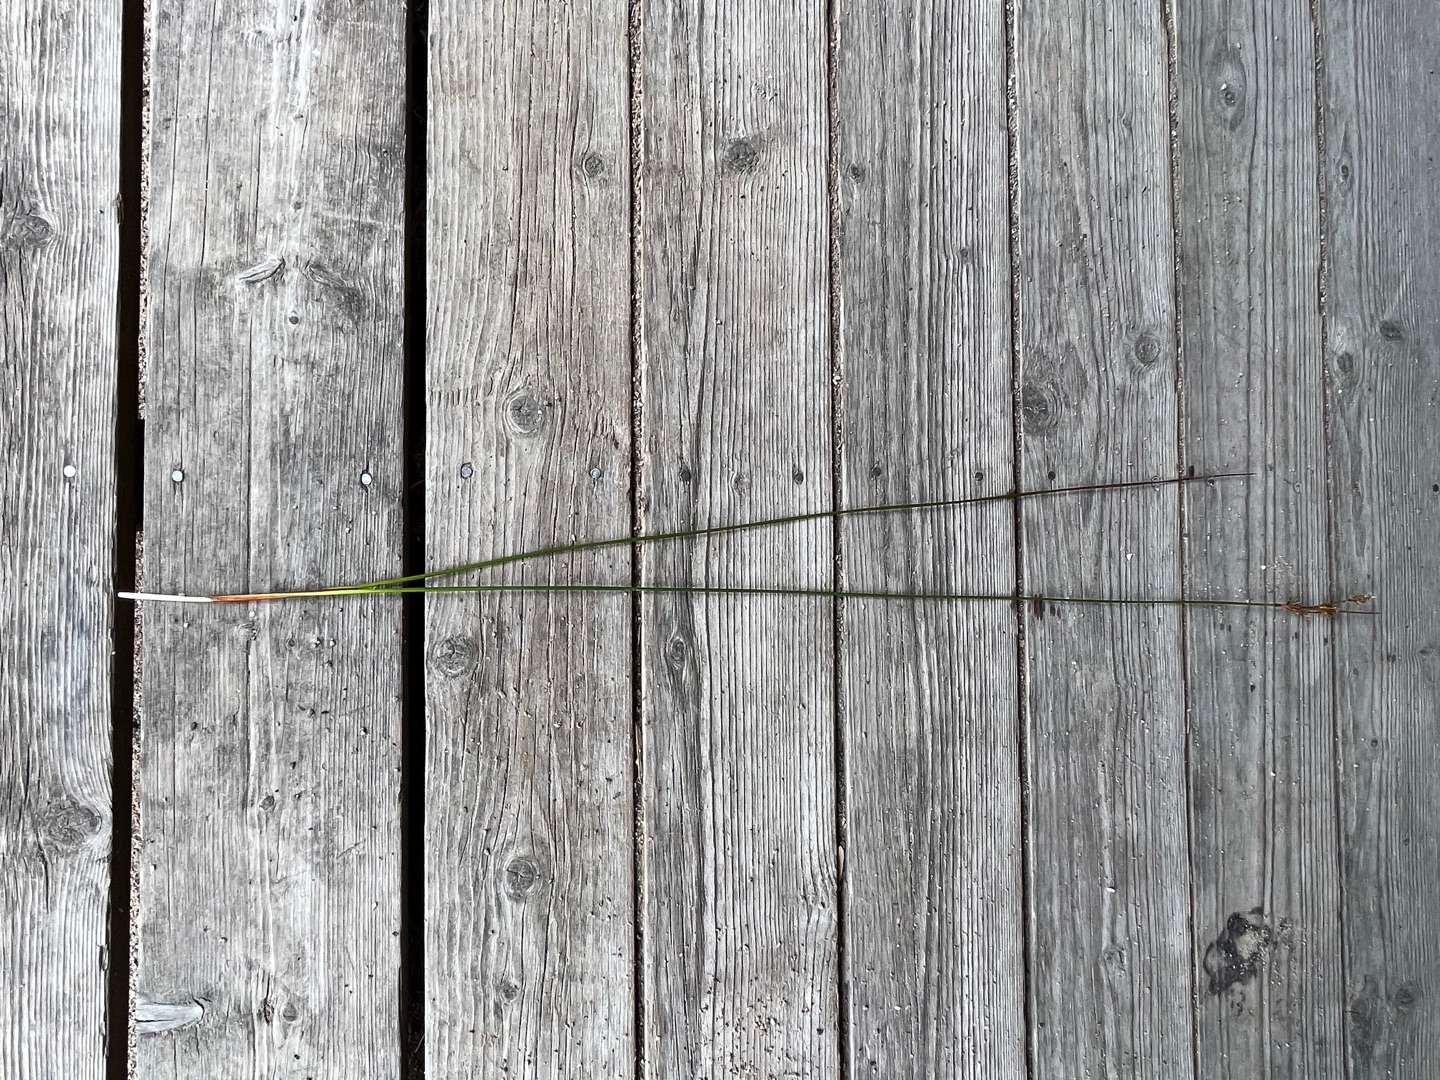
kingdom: Plantae
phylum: Tracheophyta
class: Liliopsida
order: Poales
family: Juncaceae
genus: Juncus
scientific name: Juncus maritimus
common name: Strand-siv
